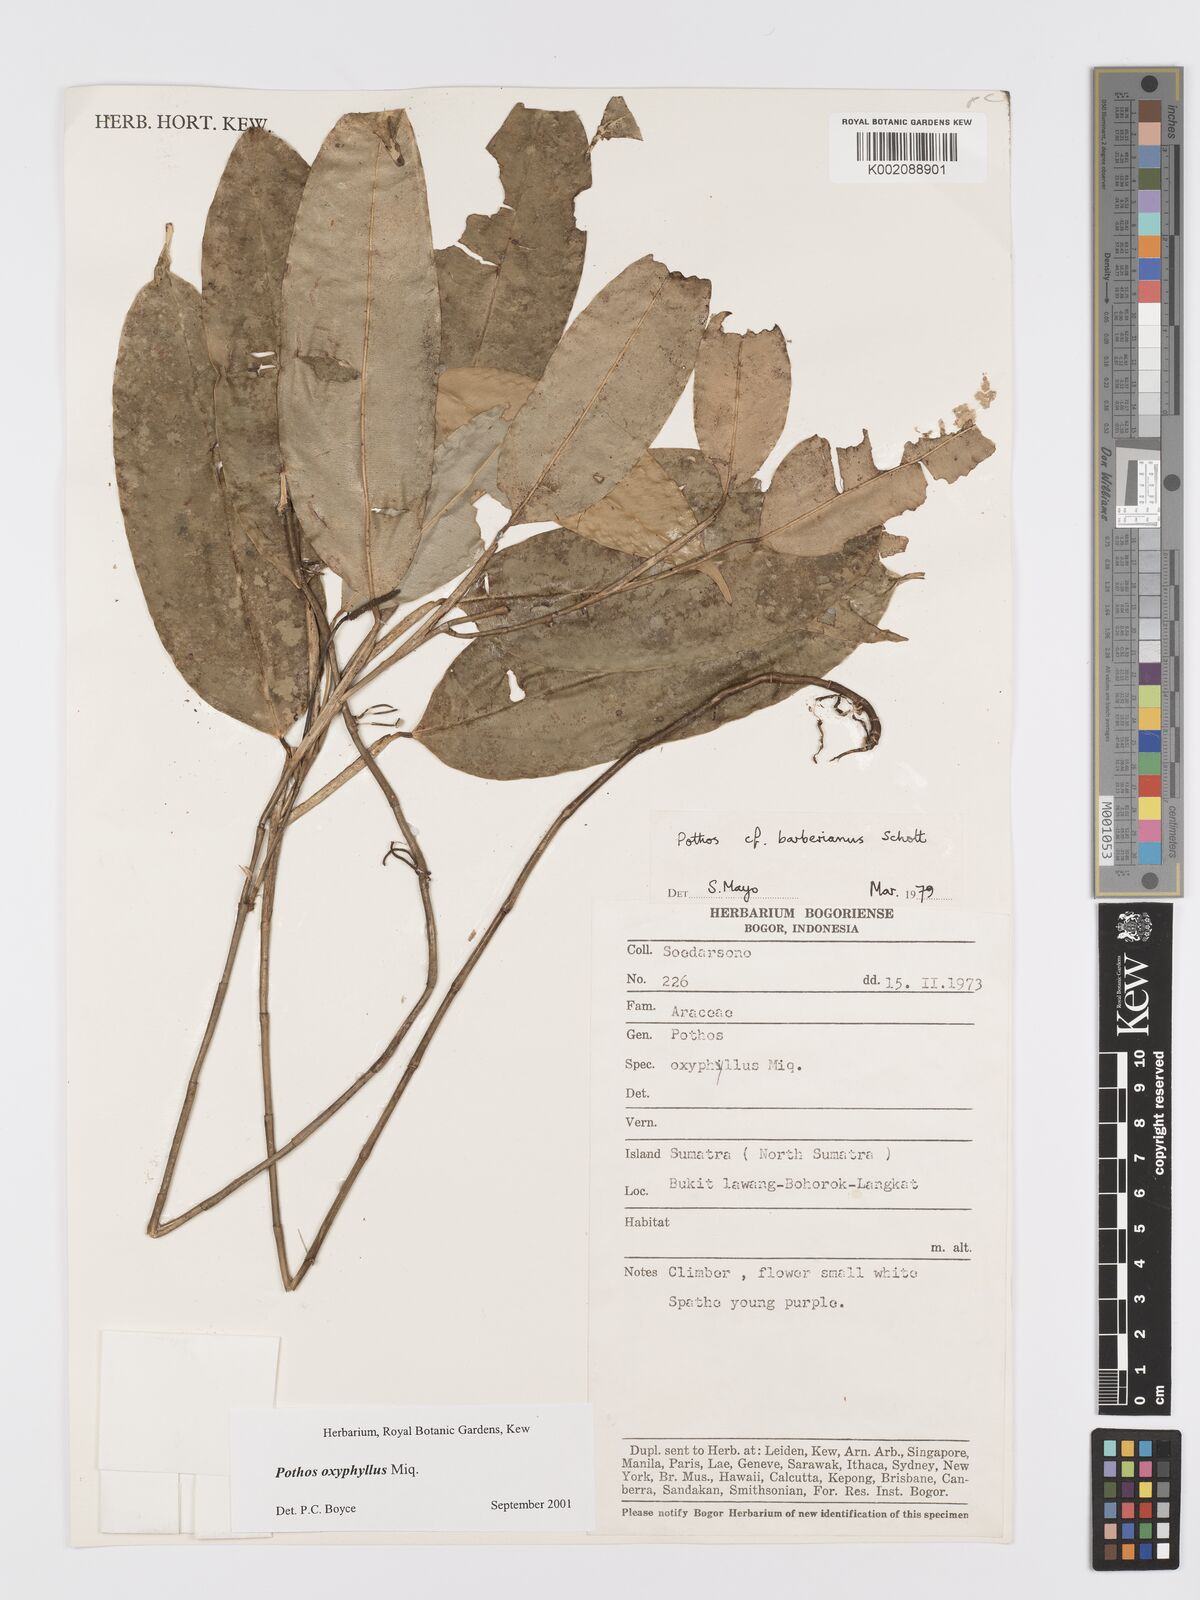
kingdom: Plantae
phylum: Tracheophyta
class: Liliopsida
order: Alismatales
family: Araceae
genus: Pothos
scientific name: Pothos oxyphyllus
